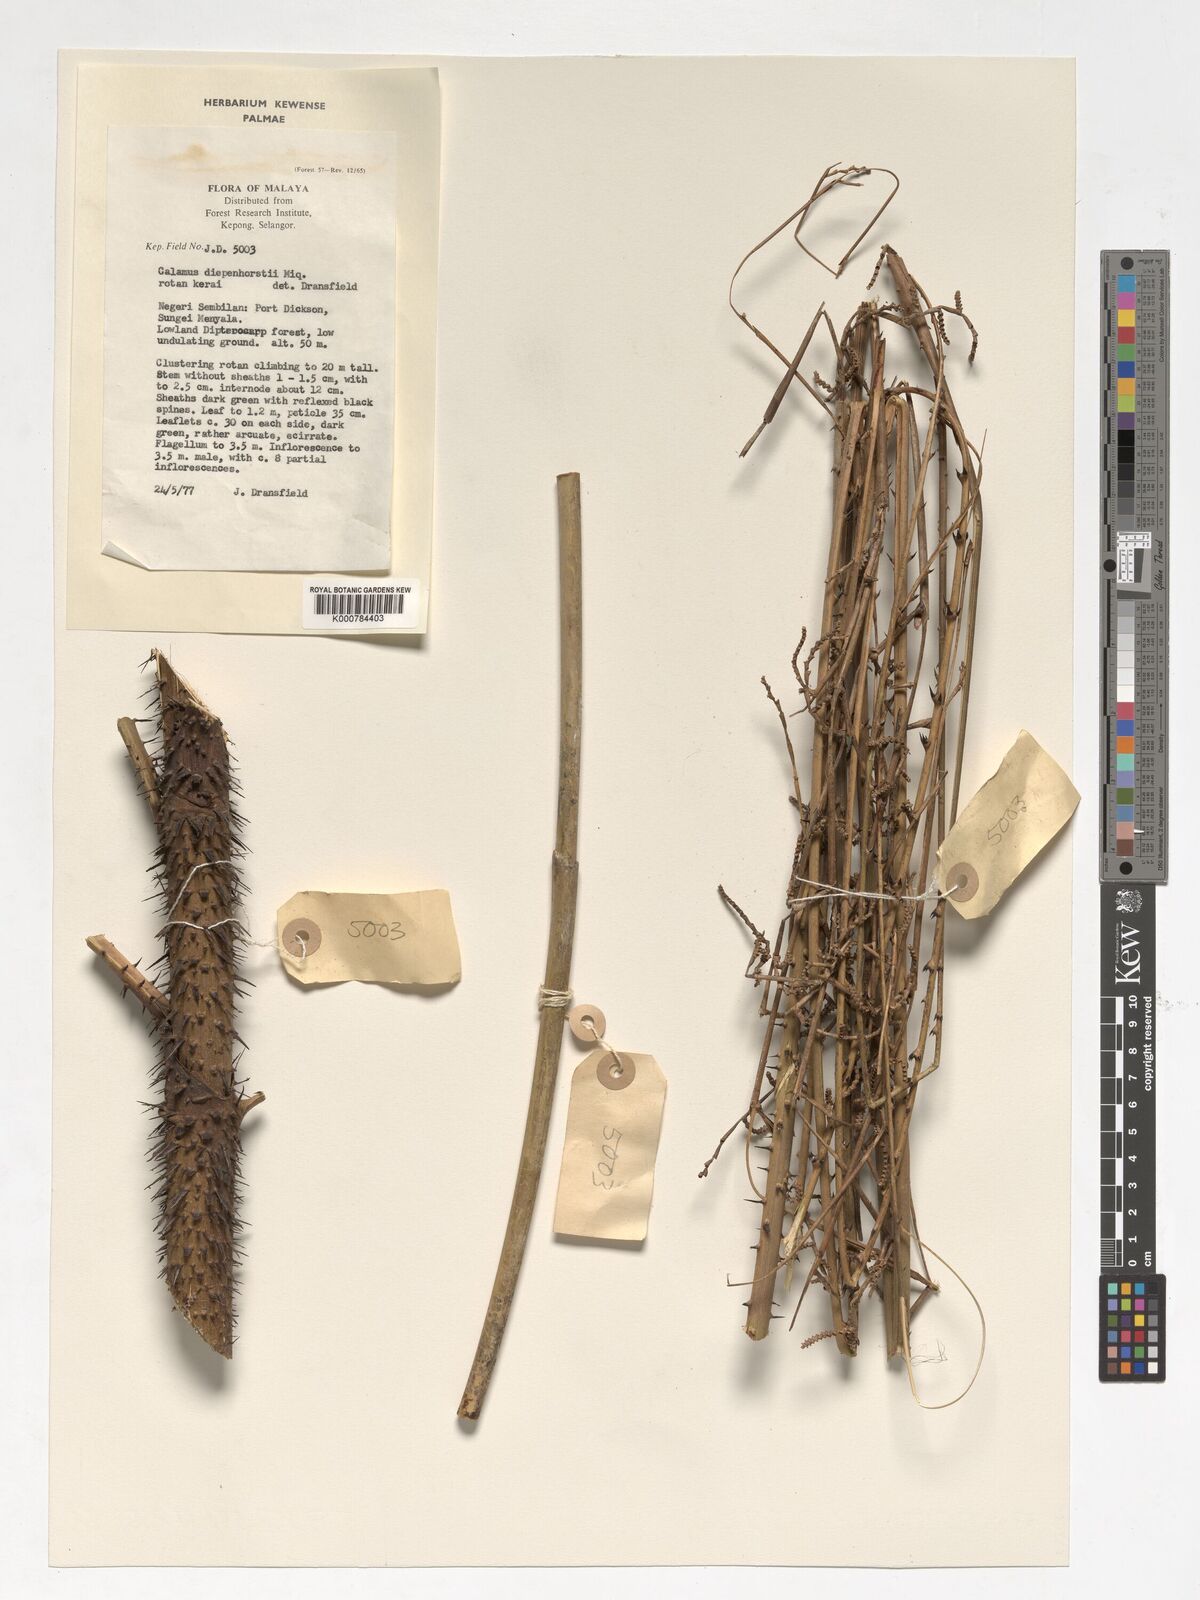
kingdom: Plantae
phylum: Tracheophyta
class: Liliopsida
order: Arecales
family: Arecaceae
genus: Calamus
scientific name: Calamus diepenhorstii
